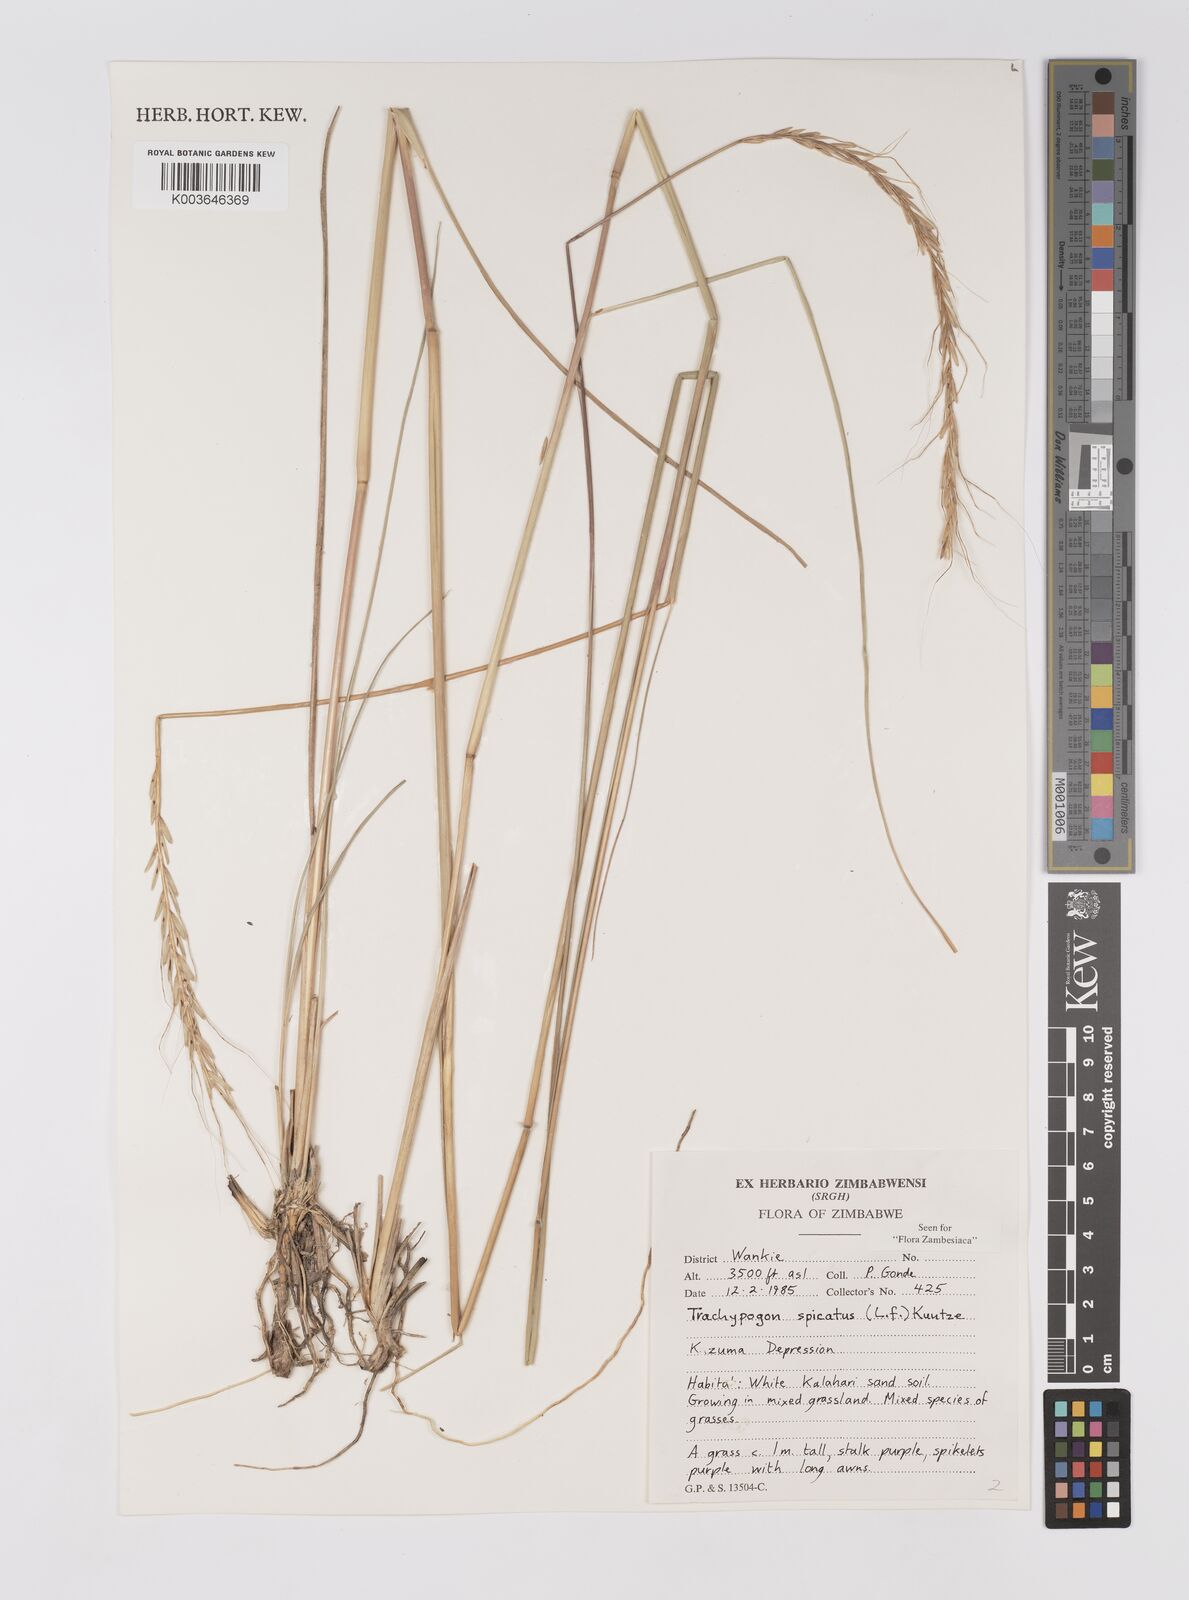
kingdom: Plantae
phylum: Tracheophyta
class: Liliopsida
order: Poales
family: Poaceae
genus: Trachypogon
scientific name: Trachypogon spicatus
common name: Crinkle-awn
